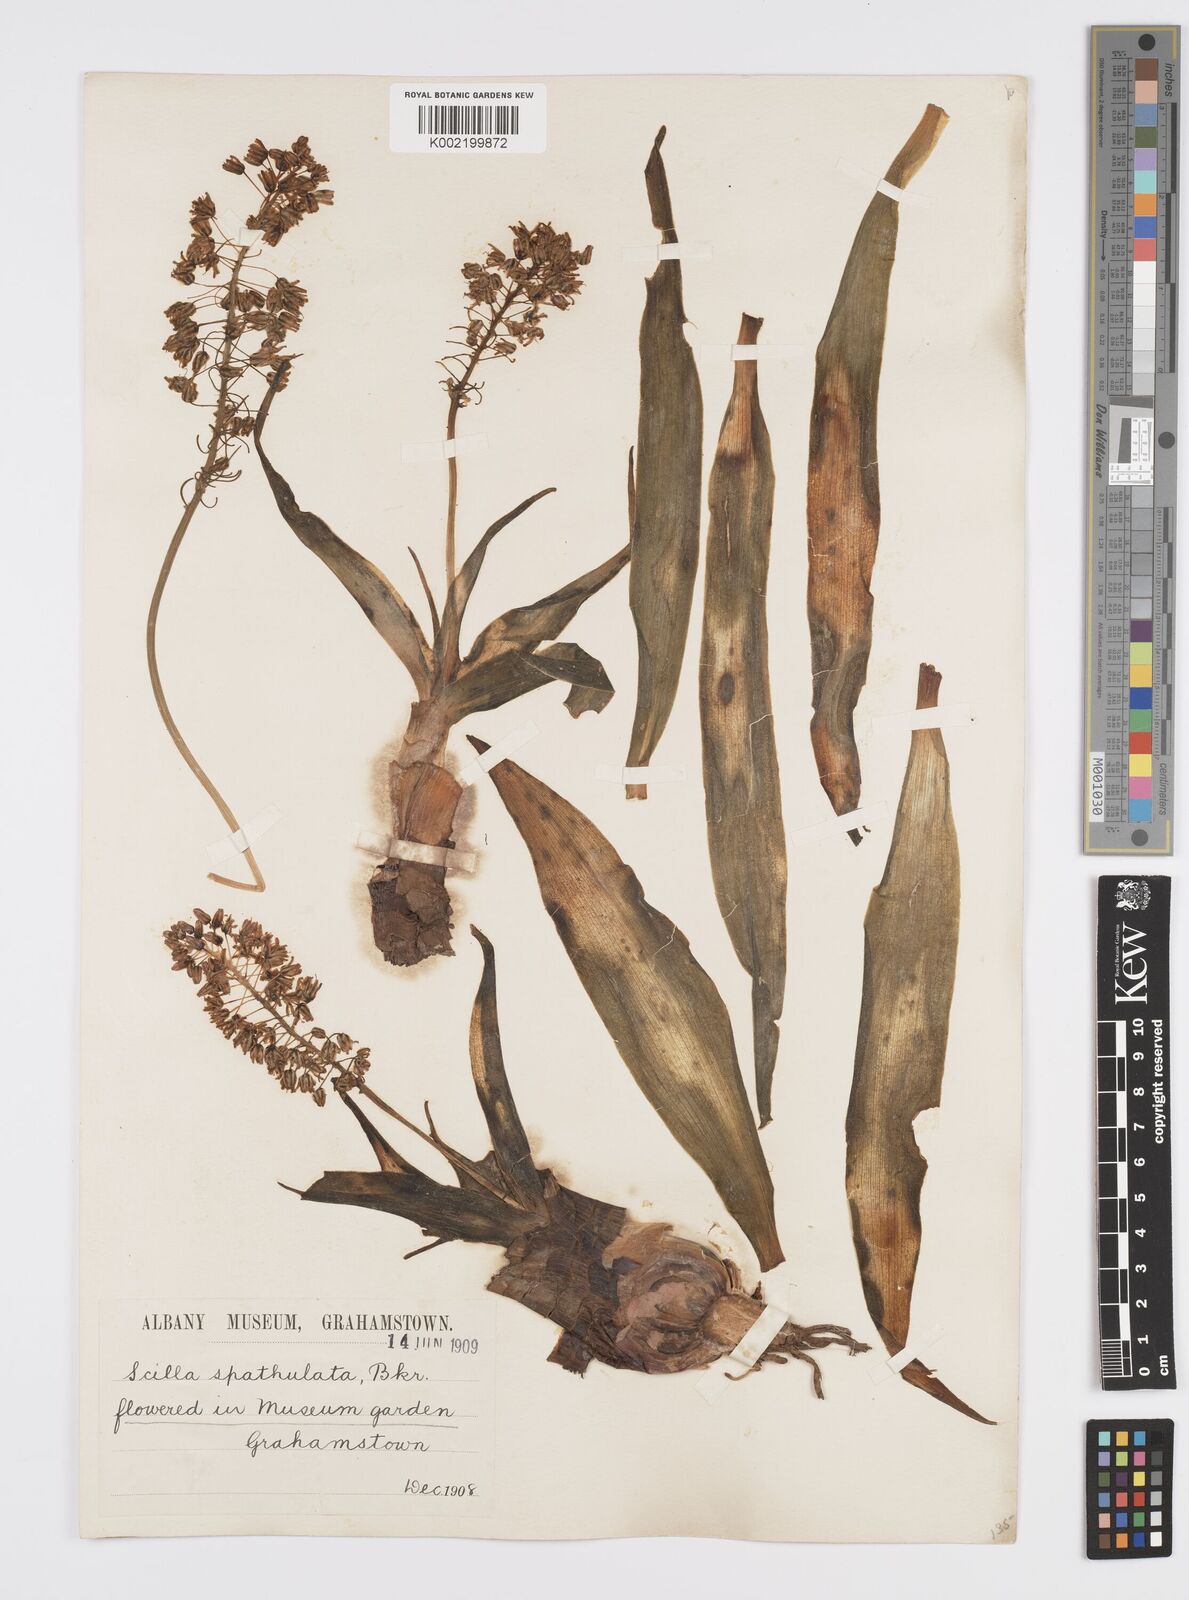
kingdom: Plantae
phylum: Tracheophyta
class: Liliopsida
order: Asparagales
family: Asparagaceae
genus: Ledebouria
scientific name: Ledebouria floribunda
